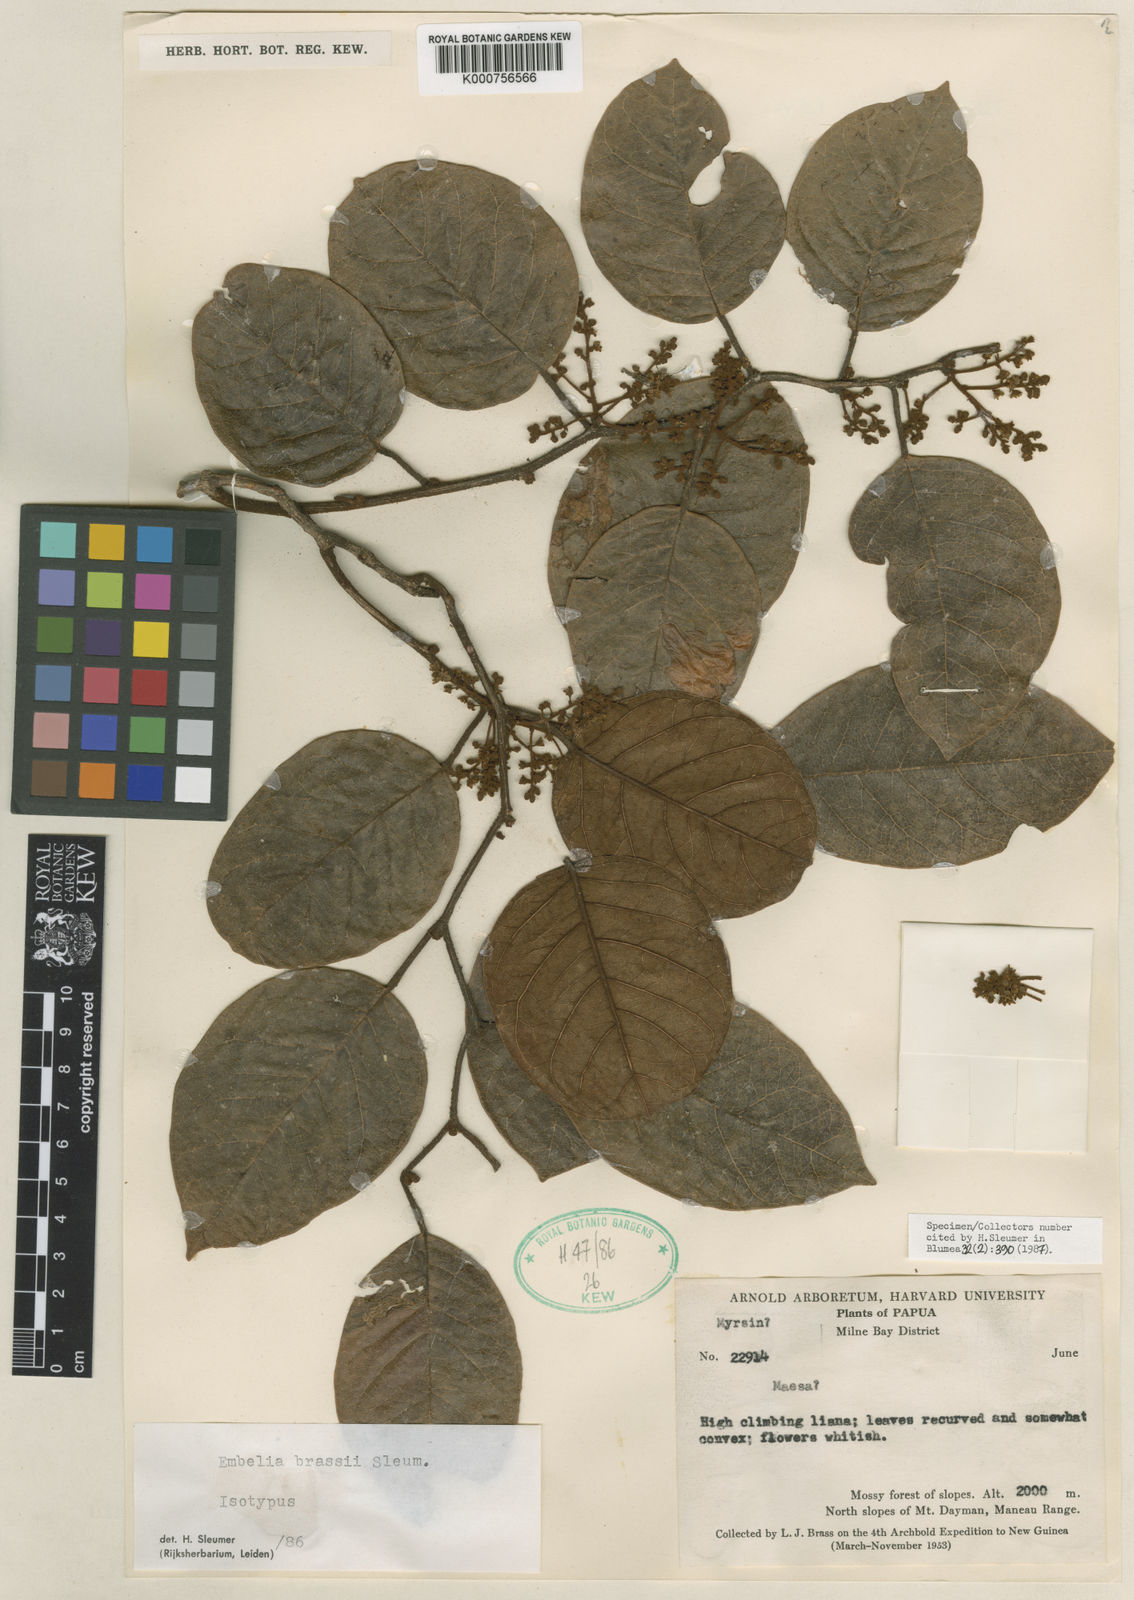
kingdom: Plantae
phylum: Tracheophyta
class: Magnoliopsida
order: Ericales
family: Primulaceae
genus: Embelia
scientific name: Embelia brassii
